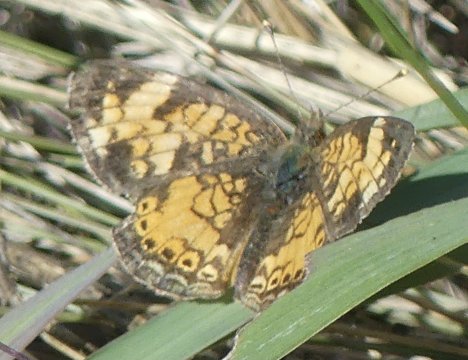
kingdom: Animalia
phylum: Arthropoda
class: Insecta
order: Lepidoptera
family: Nymphalidae
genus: Phyciodes
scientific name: Phyciodes tharos
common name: Pearl Crescent
